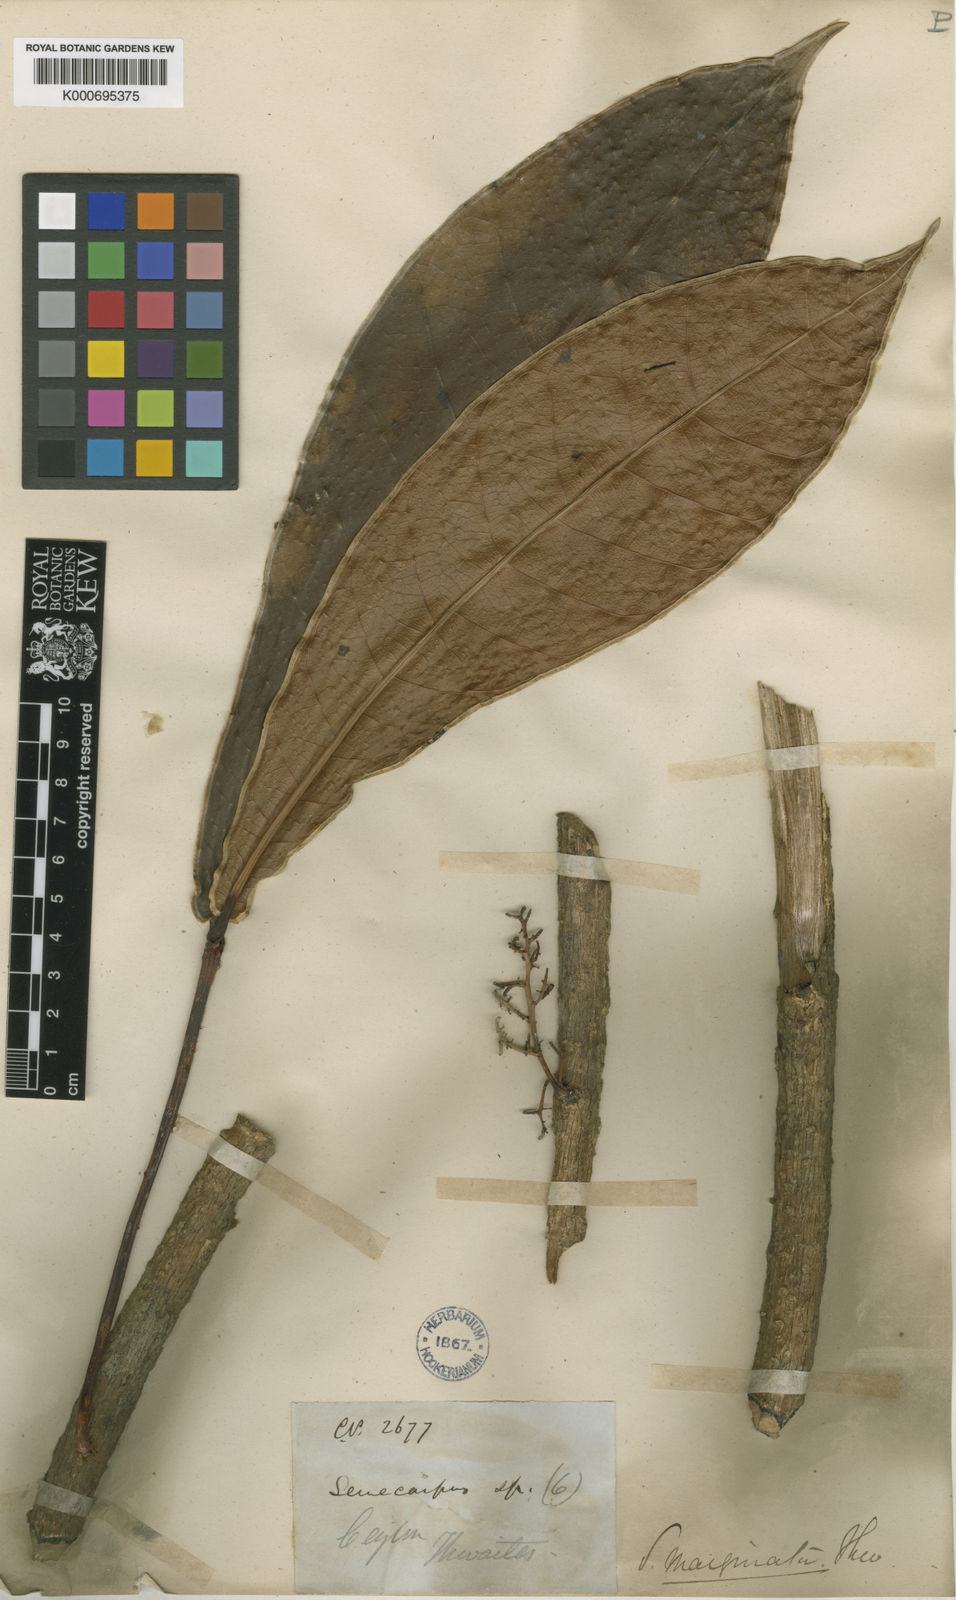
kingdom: Plantae
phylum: Tracheophyta
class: Magnoliopsida
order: Sapindales
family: Anacardiaceae
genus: Semecarpus
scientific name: Semecarpus marginatus
